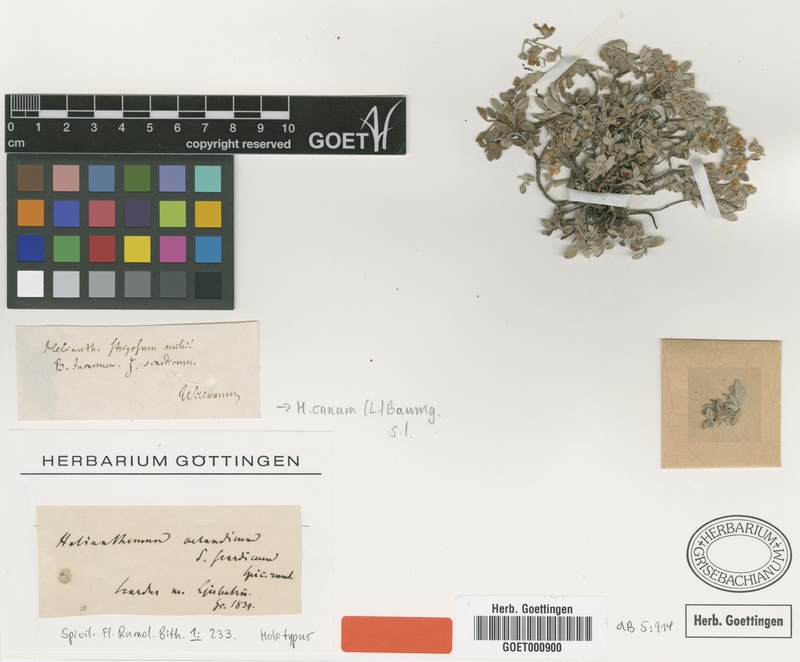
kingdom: Plantae
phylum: Tracheophyta
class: Magnoliopsida
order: Malvales
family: Cistaceae
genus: Helianthemum
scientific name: Helianthemum canum
